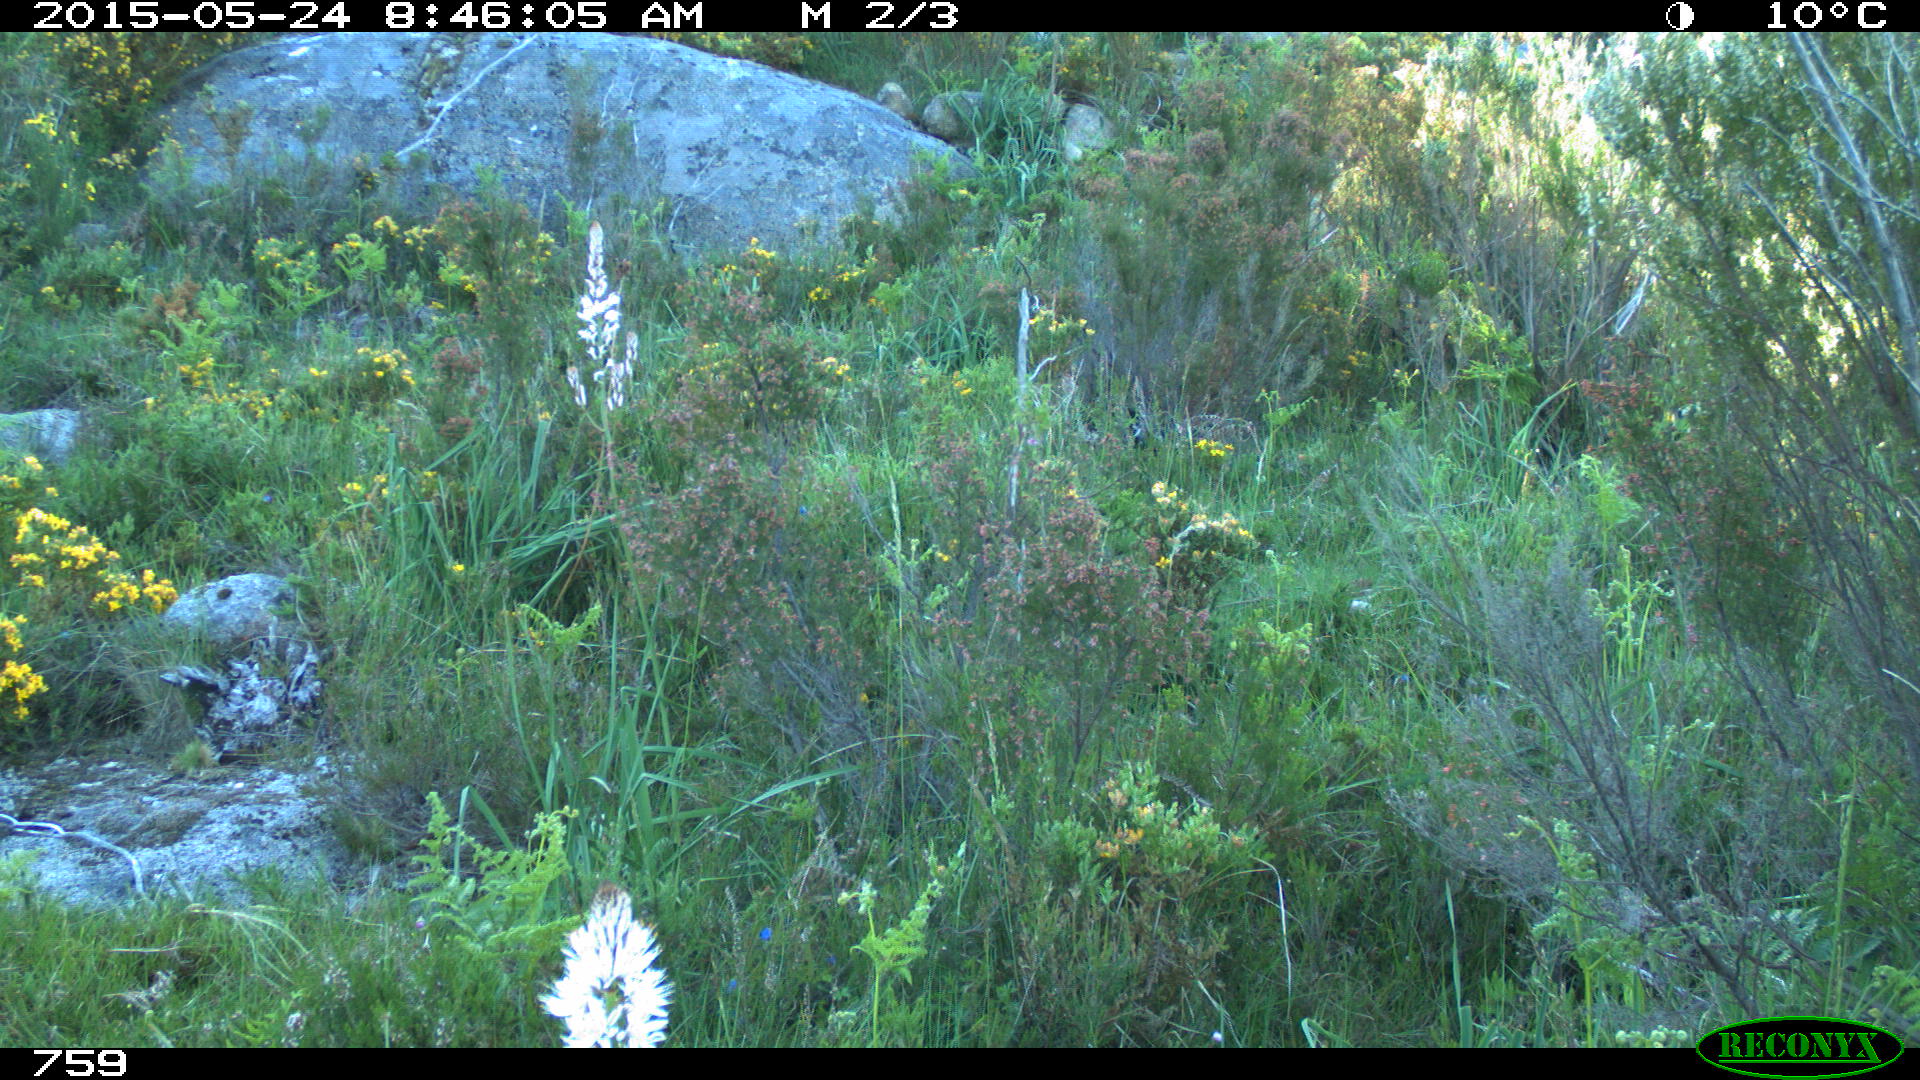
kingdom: Animalia
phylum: Chordata
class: Mammalia
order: Artiodactyla
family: Cervidae
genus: Capreolus
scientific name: Capreolus capreolus
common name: Western roe deer
